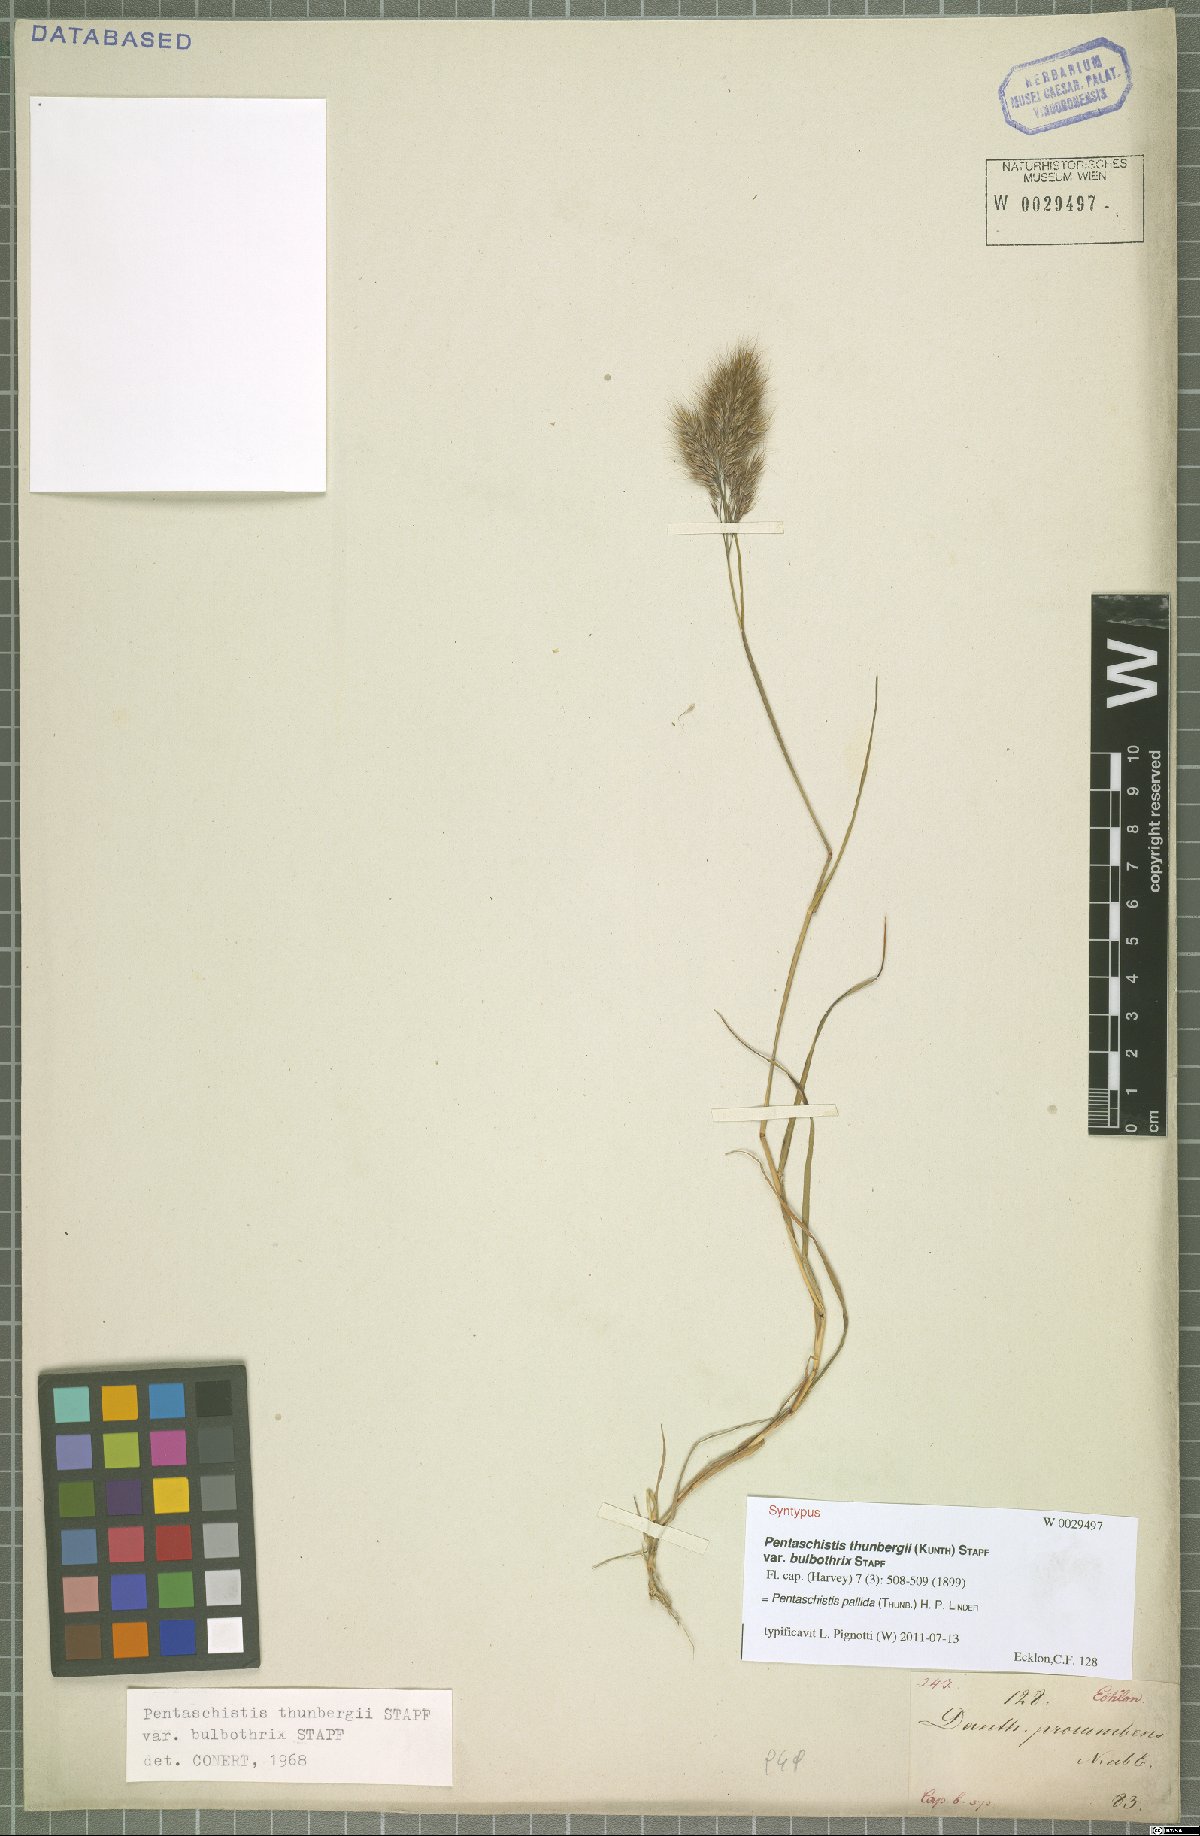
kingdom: Plantae
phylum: Tracheophyta
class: Liliopsida
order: Poales
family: Poaceae
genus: Pentameris
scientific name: Pentameris pallida
